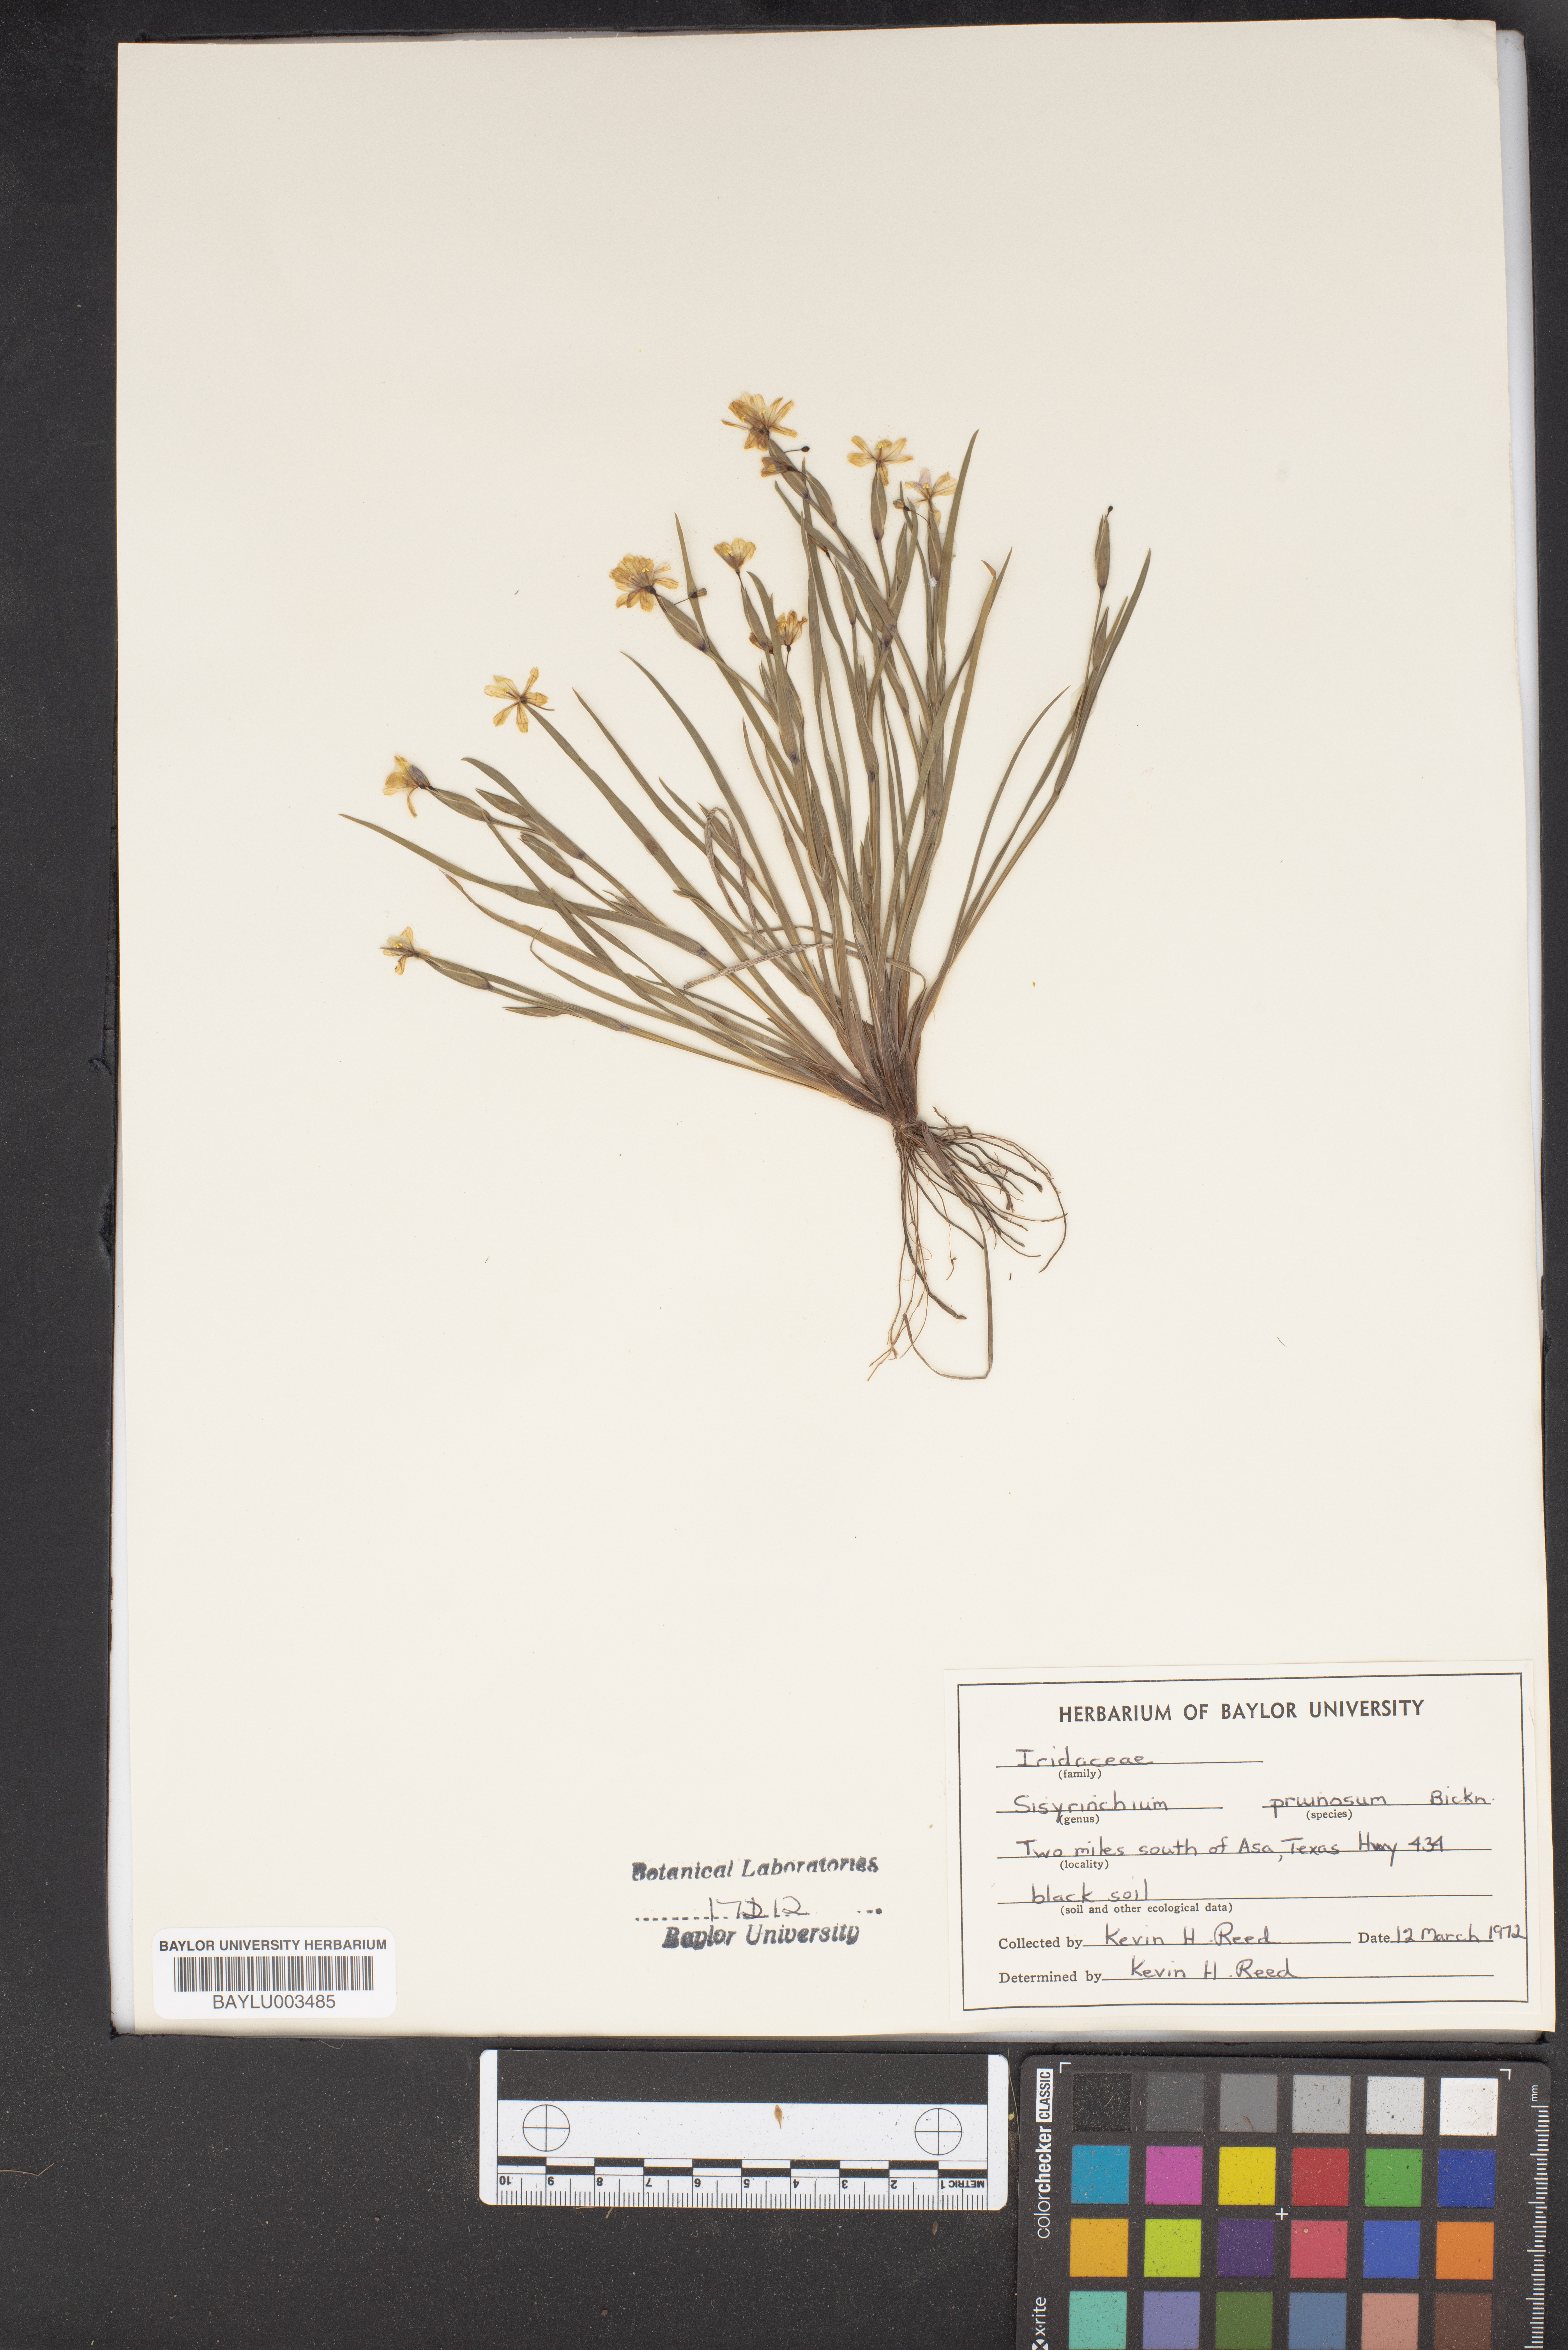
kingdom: Plantae
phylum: Tracheophyta
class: Liliopsida
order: Asparagales
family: Iridaceae
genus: Sisyrinchium
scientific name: Sisyrinchium pruinosum
